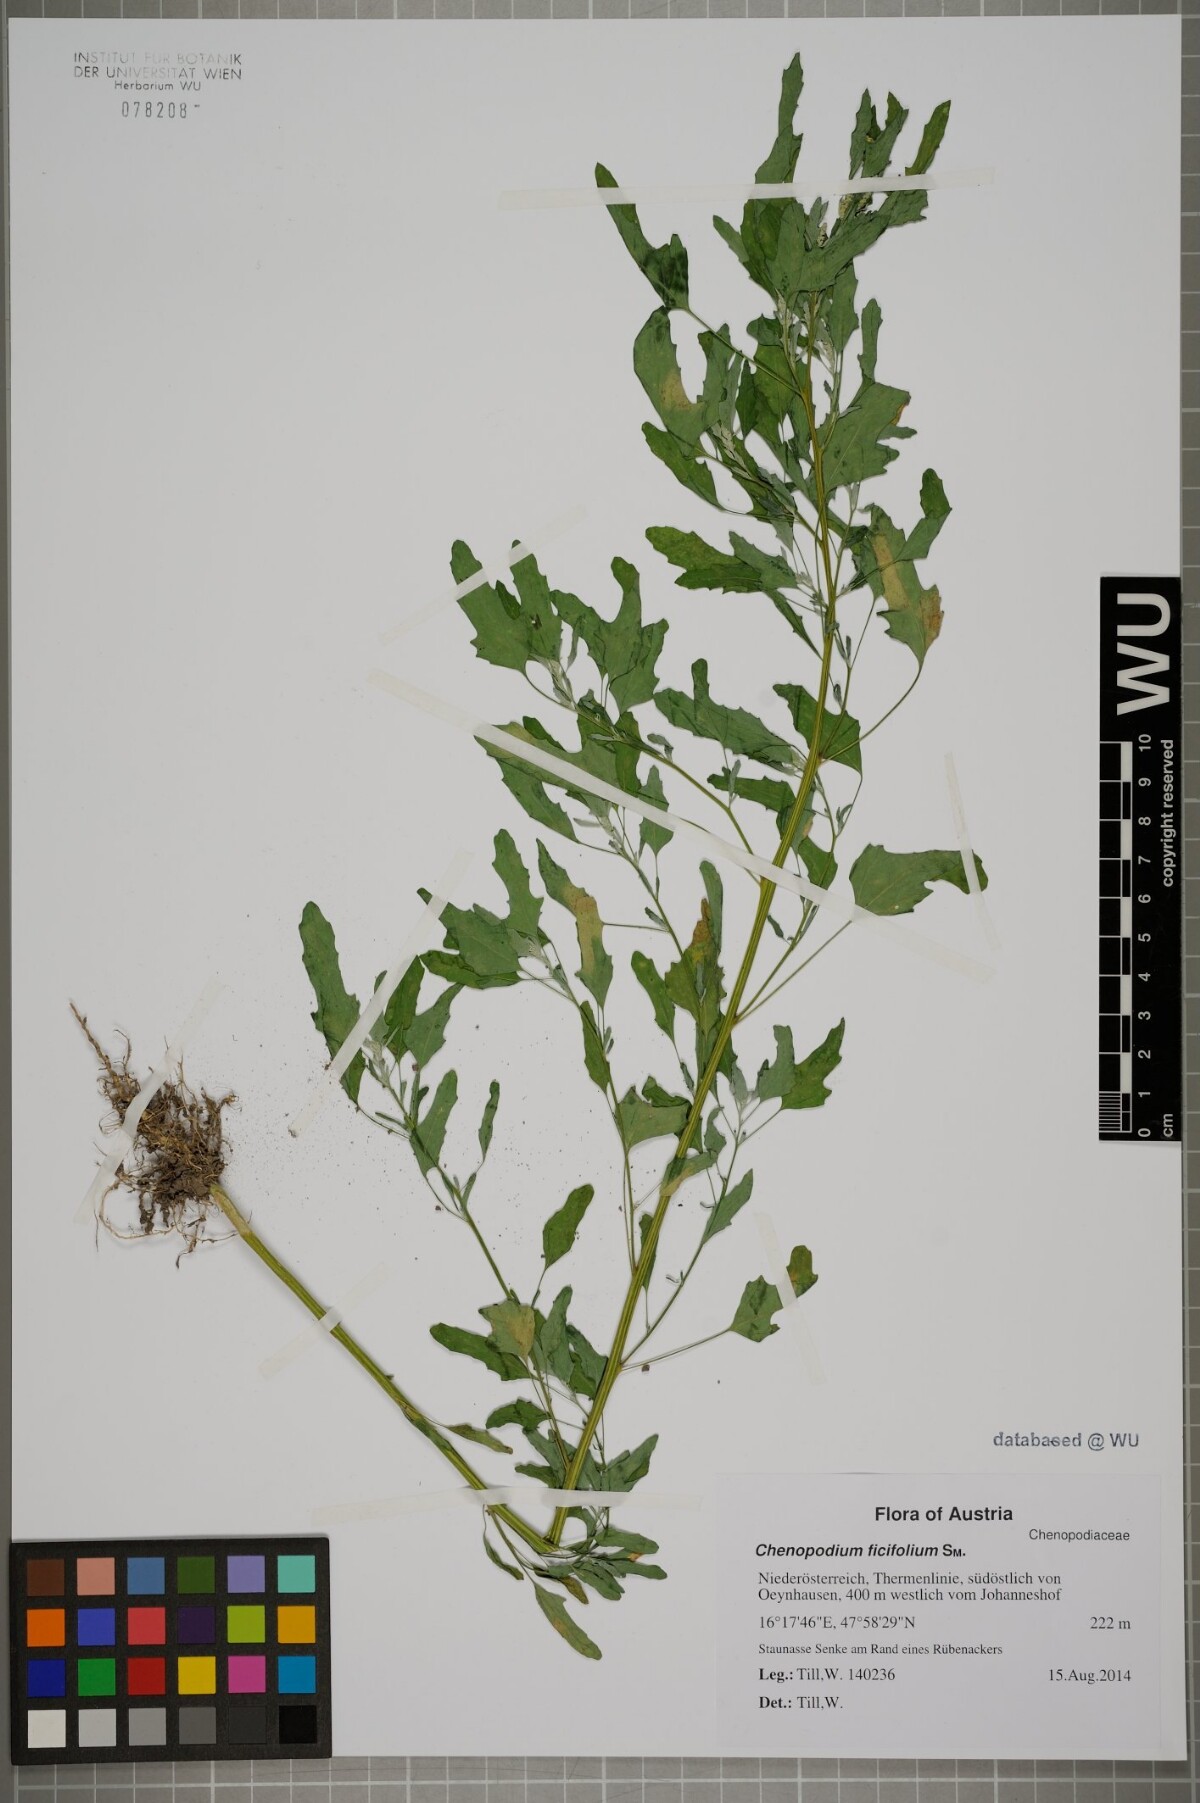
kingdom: Plantae
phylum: Tracheophyta
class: Magnoliopsida
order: Caryophyllales
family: Amaranthaceae
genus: Chenopodium
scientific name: Chenopodium ficifolium
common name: Fig-leaved goosefoot
